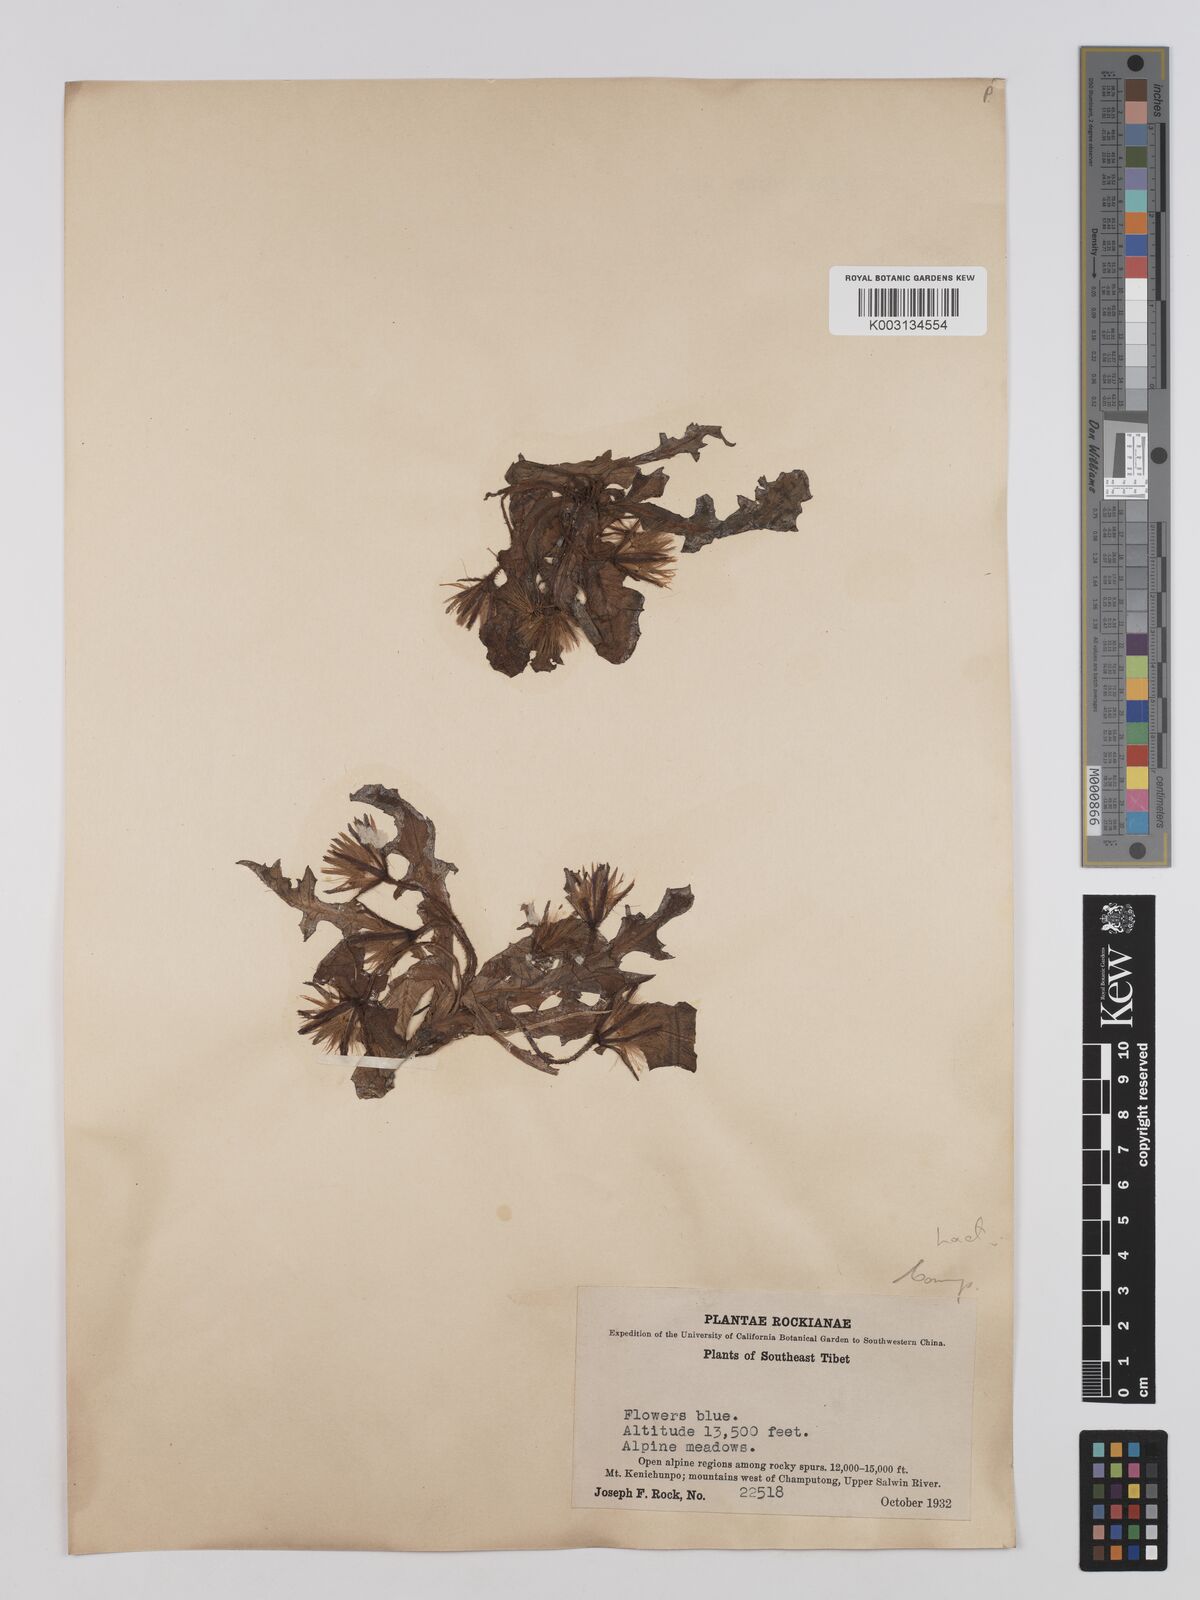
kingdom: Plantae
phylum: Tracheophyta
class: Magnoliopsida
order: Asterales
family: Asteraceae
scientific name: Asteraceae
